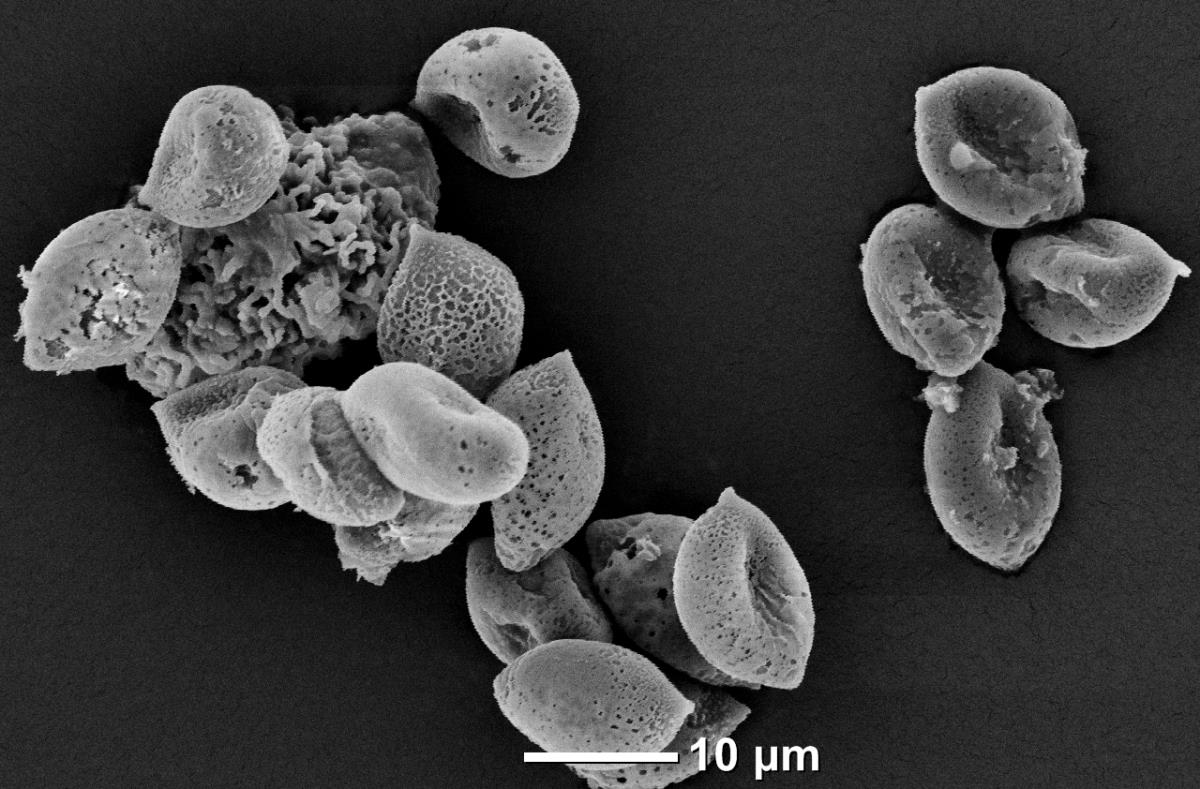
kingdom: Fungi
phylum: Basidiomycota
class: Agaricomycetes
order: Agaricales
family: Bolbitiaceae
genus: Descolea
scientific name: Descolea australiensis
